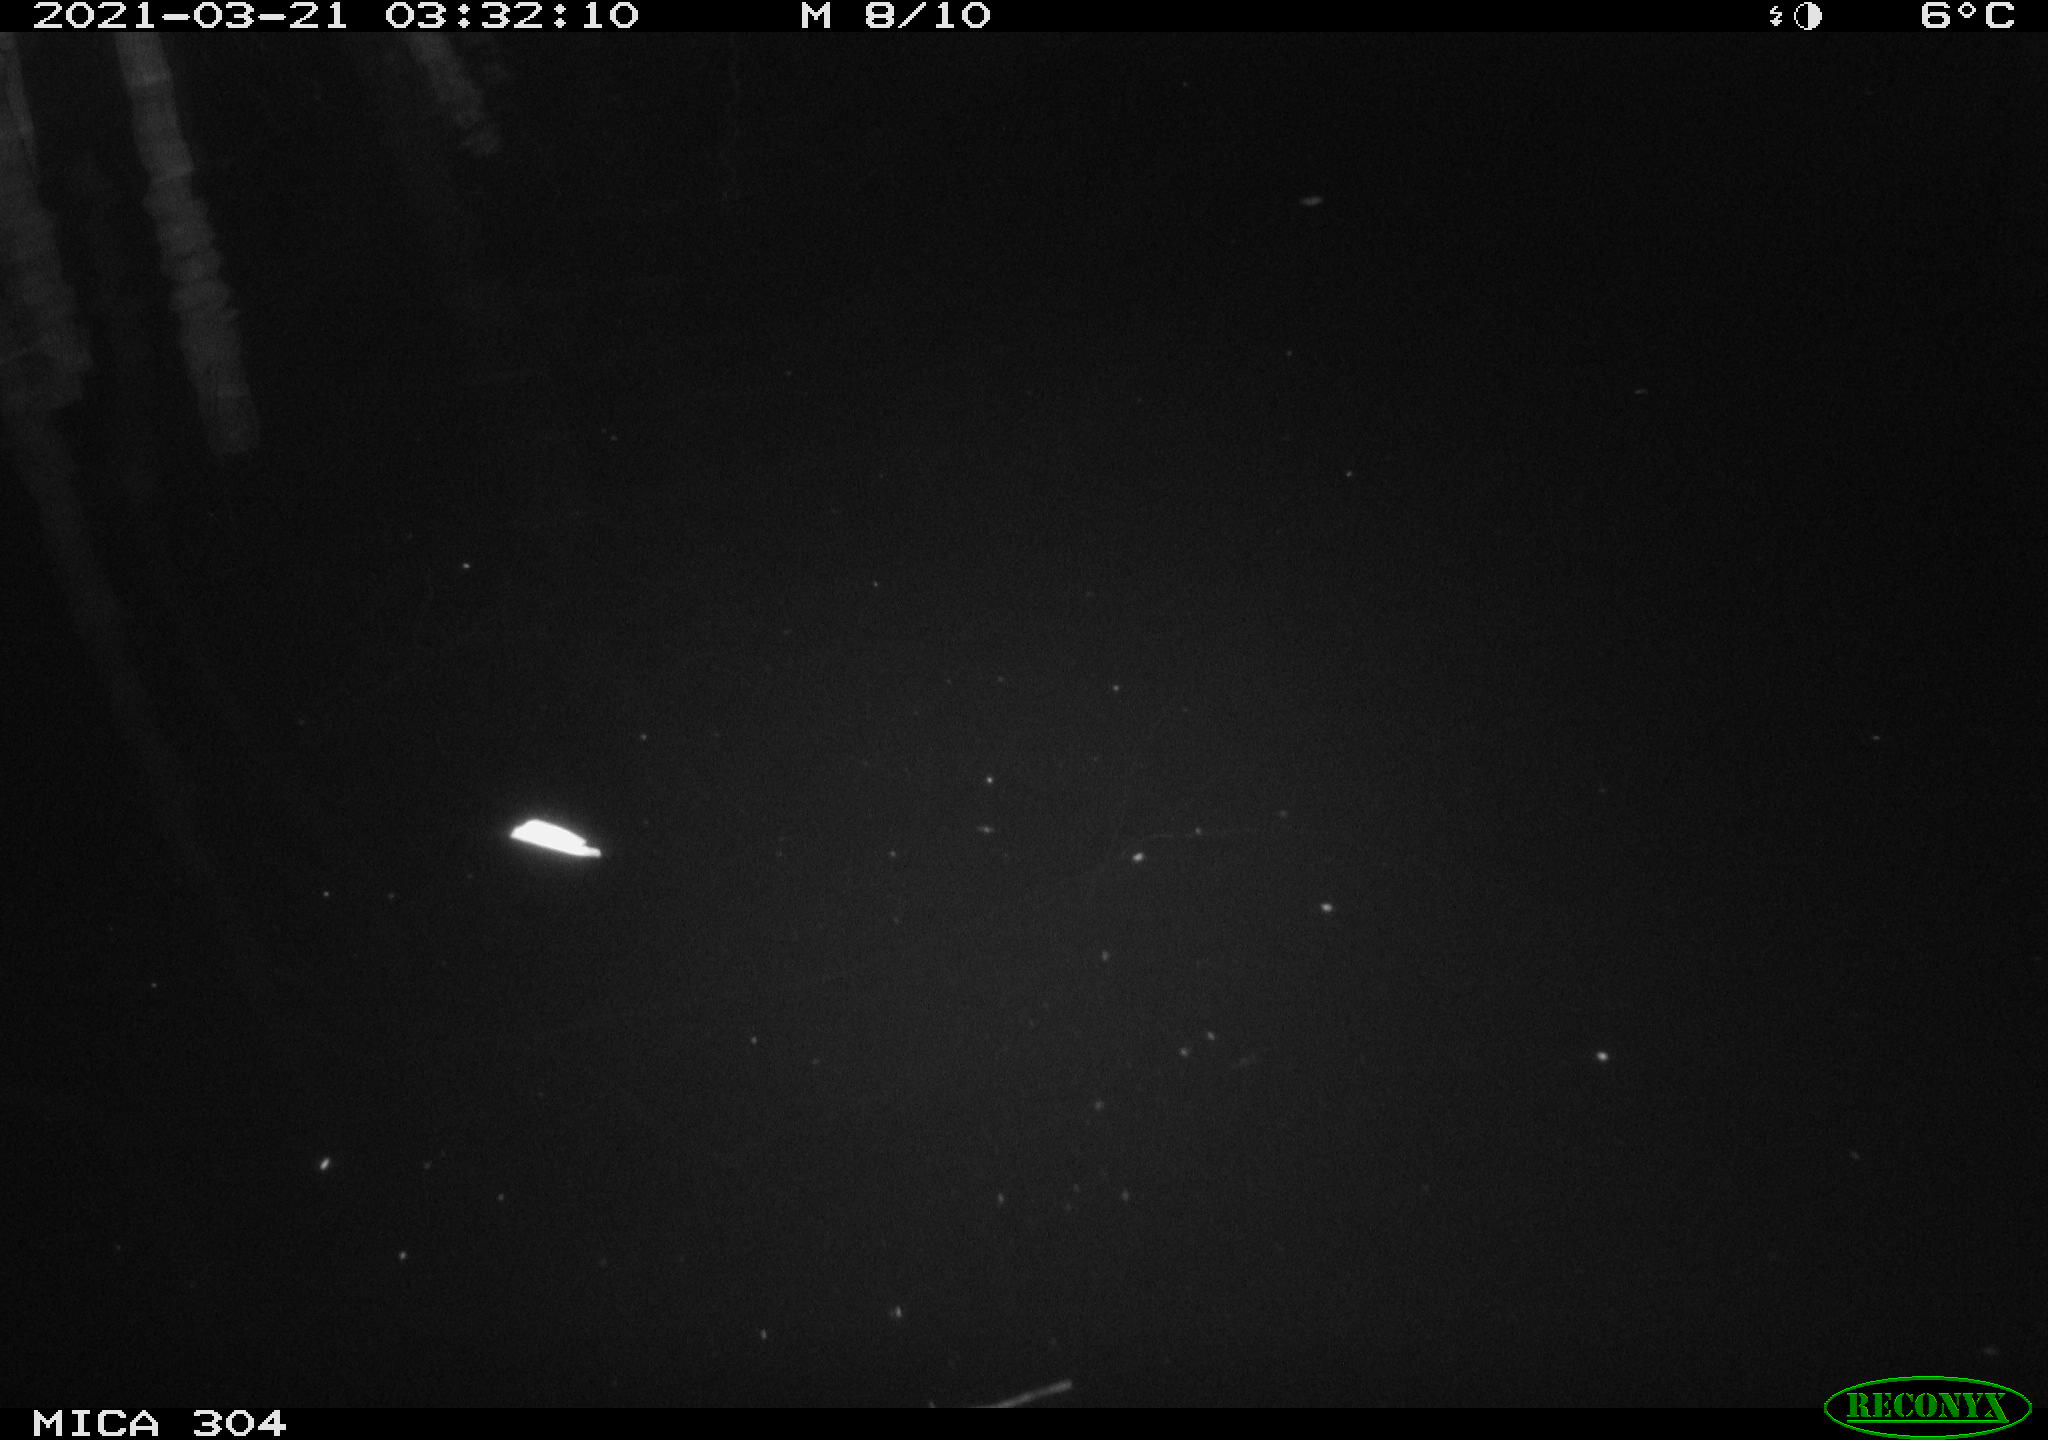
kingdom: Animalia
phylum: Chordata
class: Aves
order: Anseriformes
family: Anatidae
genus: Anas
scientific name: Anas platyrhynchos
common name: Mallard
